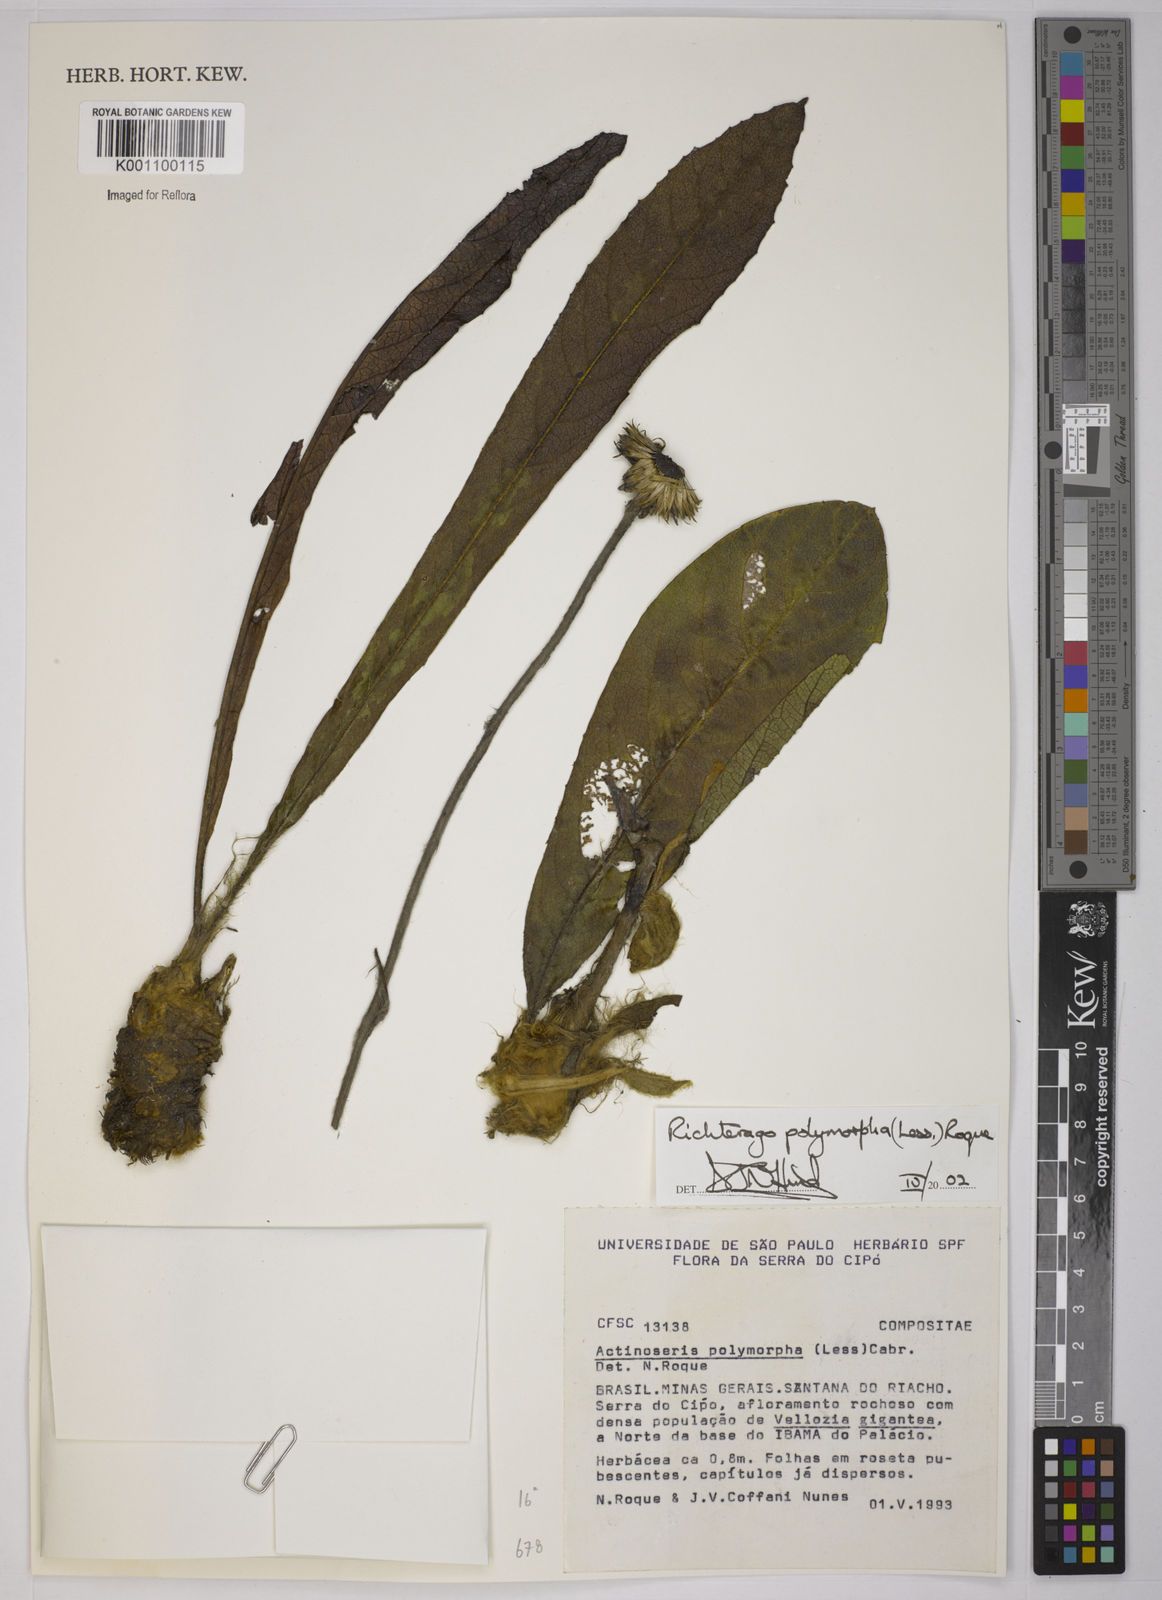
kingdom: Plantae
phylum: Tracheophyta
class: Magnoliopsida
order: Asterales
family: Asteraceae
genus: Richterago
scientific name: Richterago polymorpha
